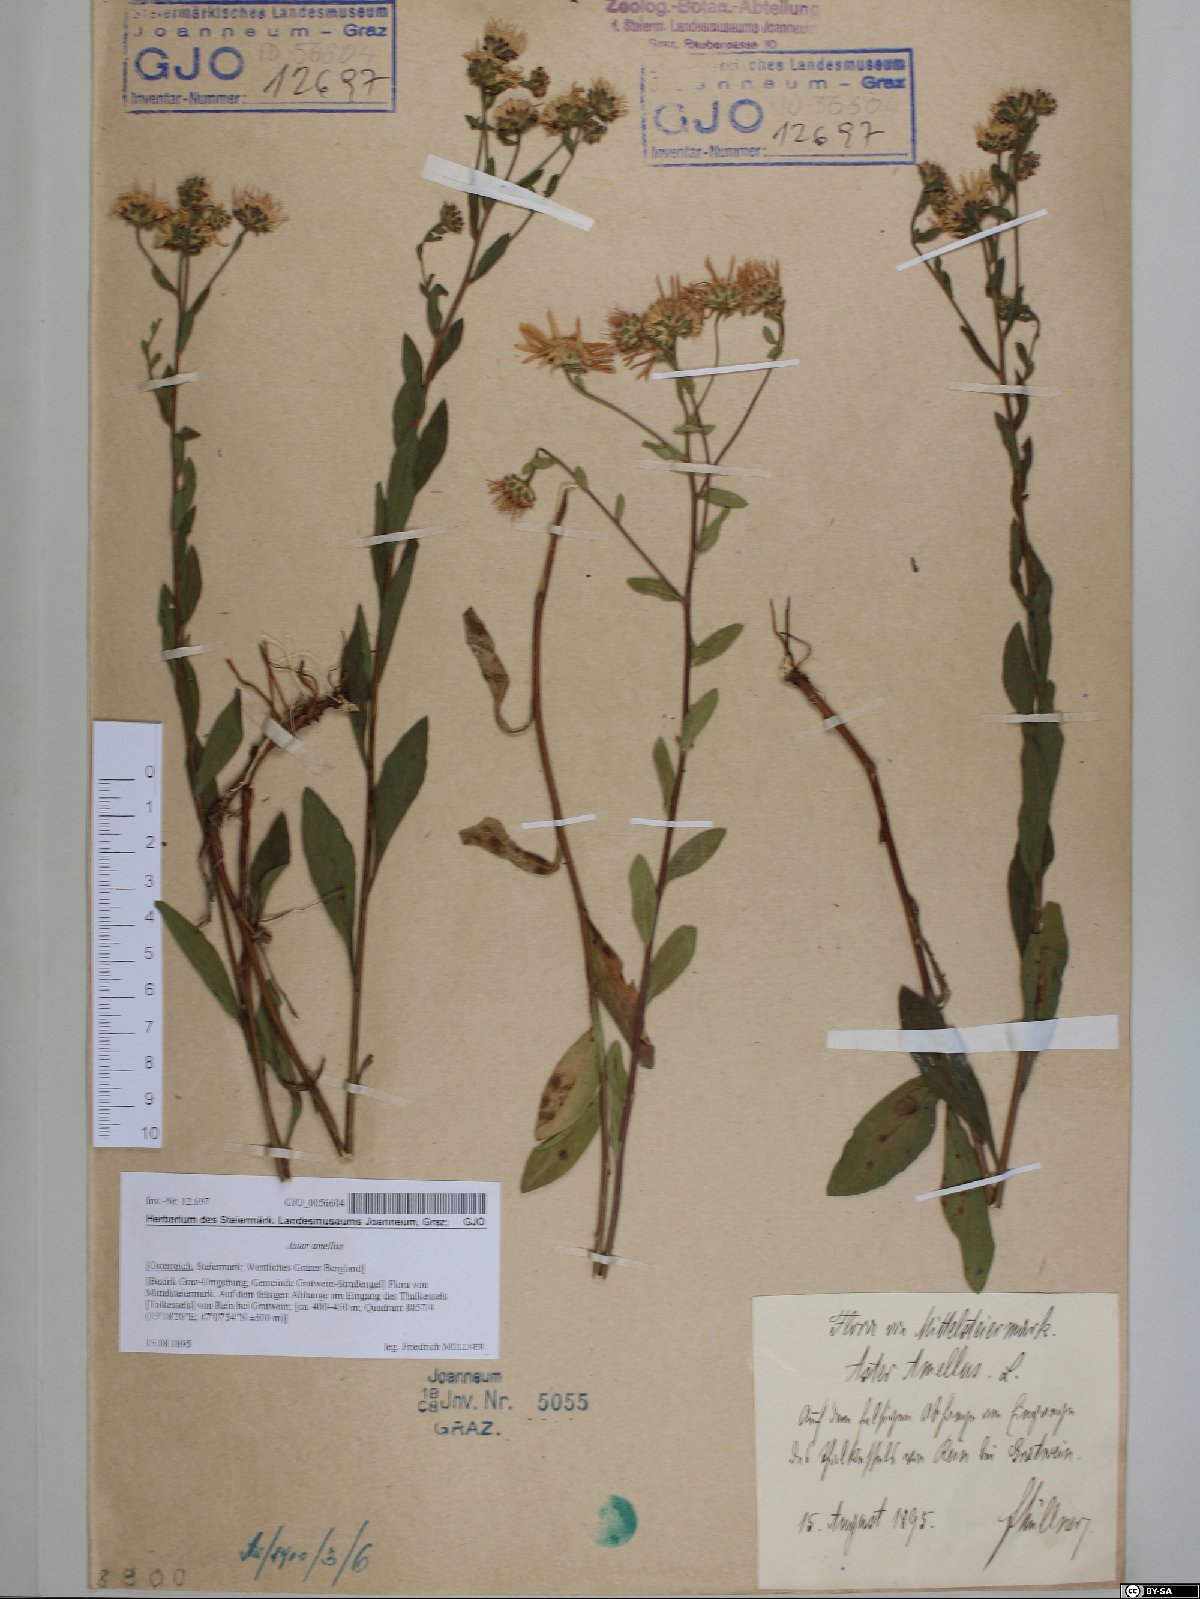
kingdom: Plantae
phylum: Tracheophyta
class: Magnoliopsida
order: Asterales
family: Asteraceae
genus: Aster
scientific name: Aster amellus
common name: European michaelmas daisy
